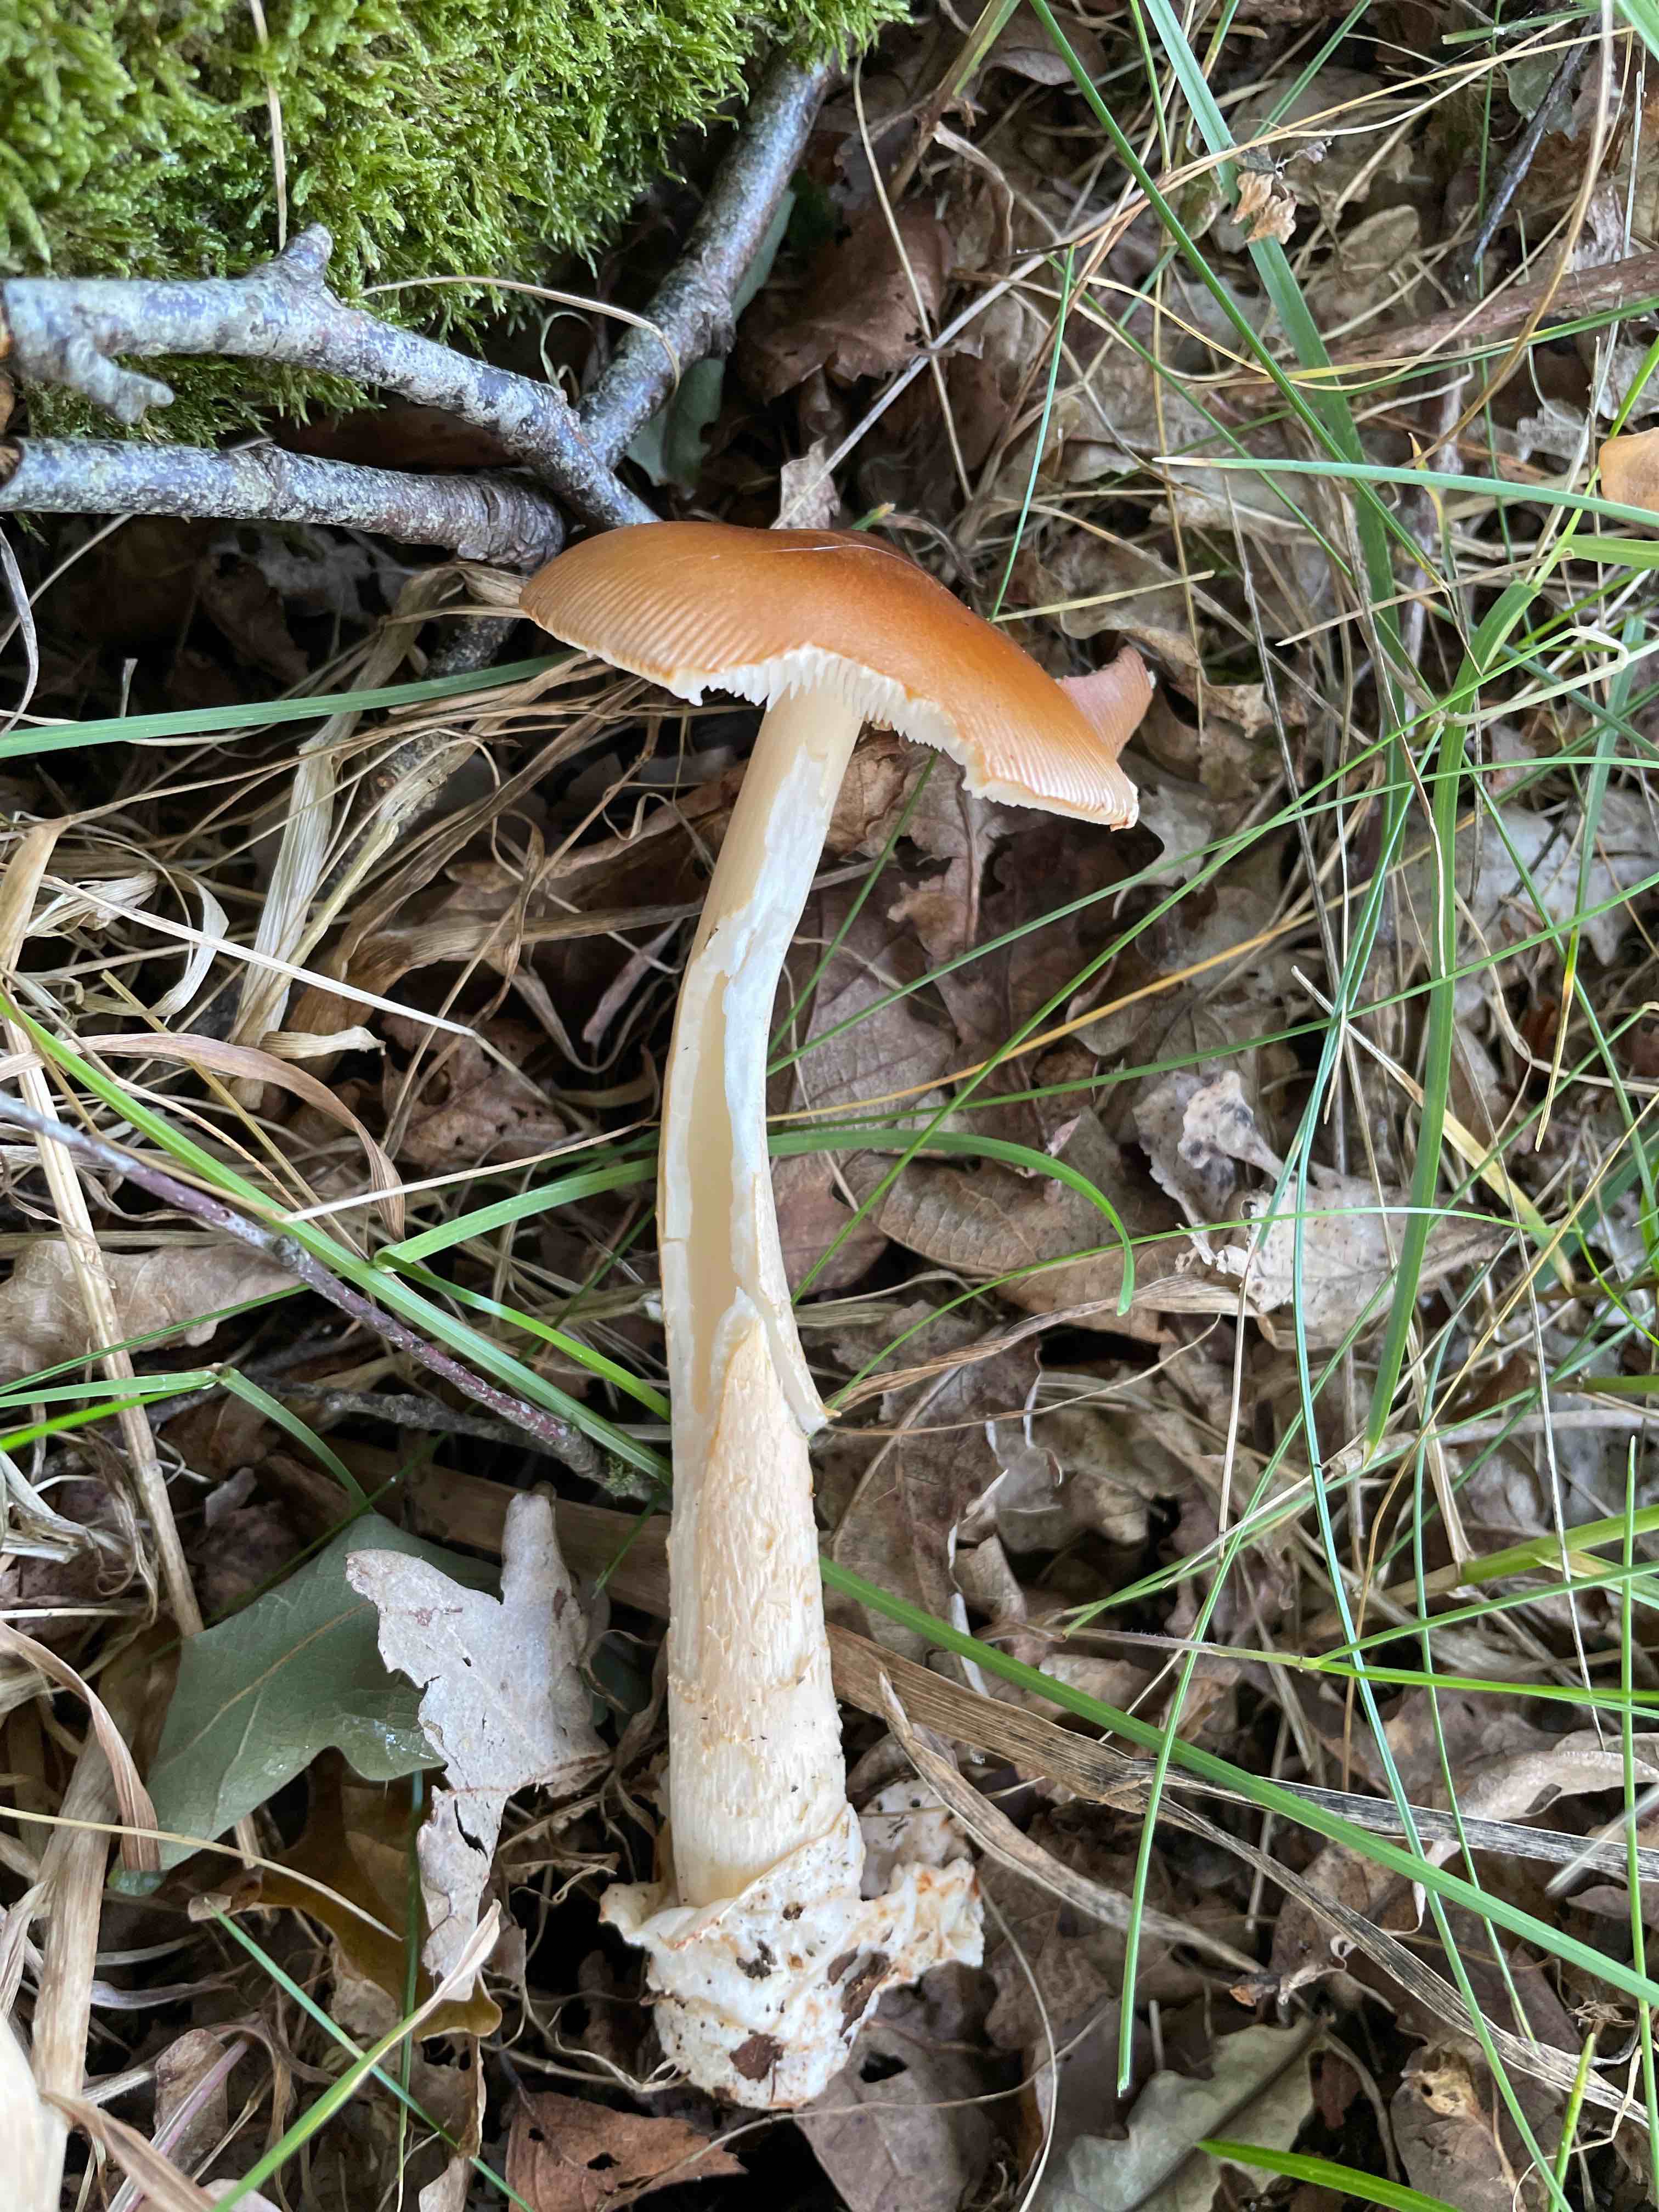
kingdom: Fungi
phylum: Basidiomycota
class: Agaricomycetes
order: Agaricales
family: Amanitaceae
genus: Amanita
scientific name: Amanita fulva
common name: brun kam-fluesvamp
